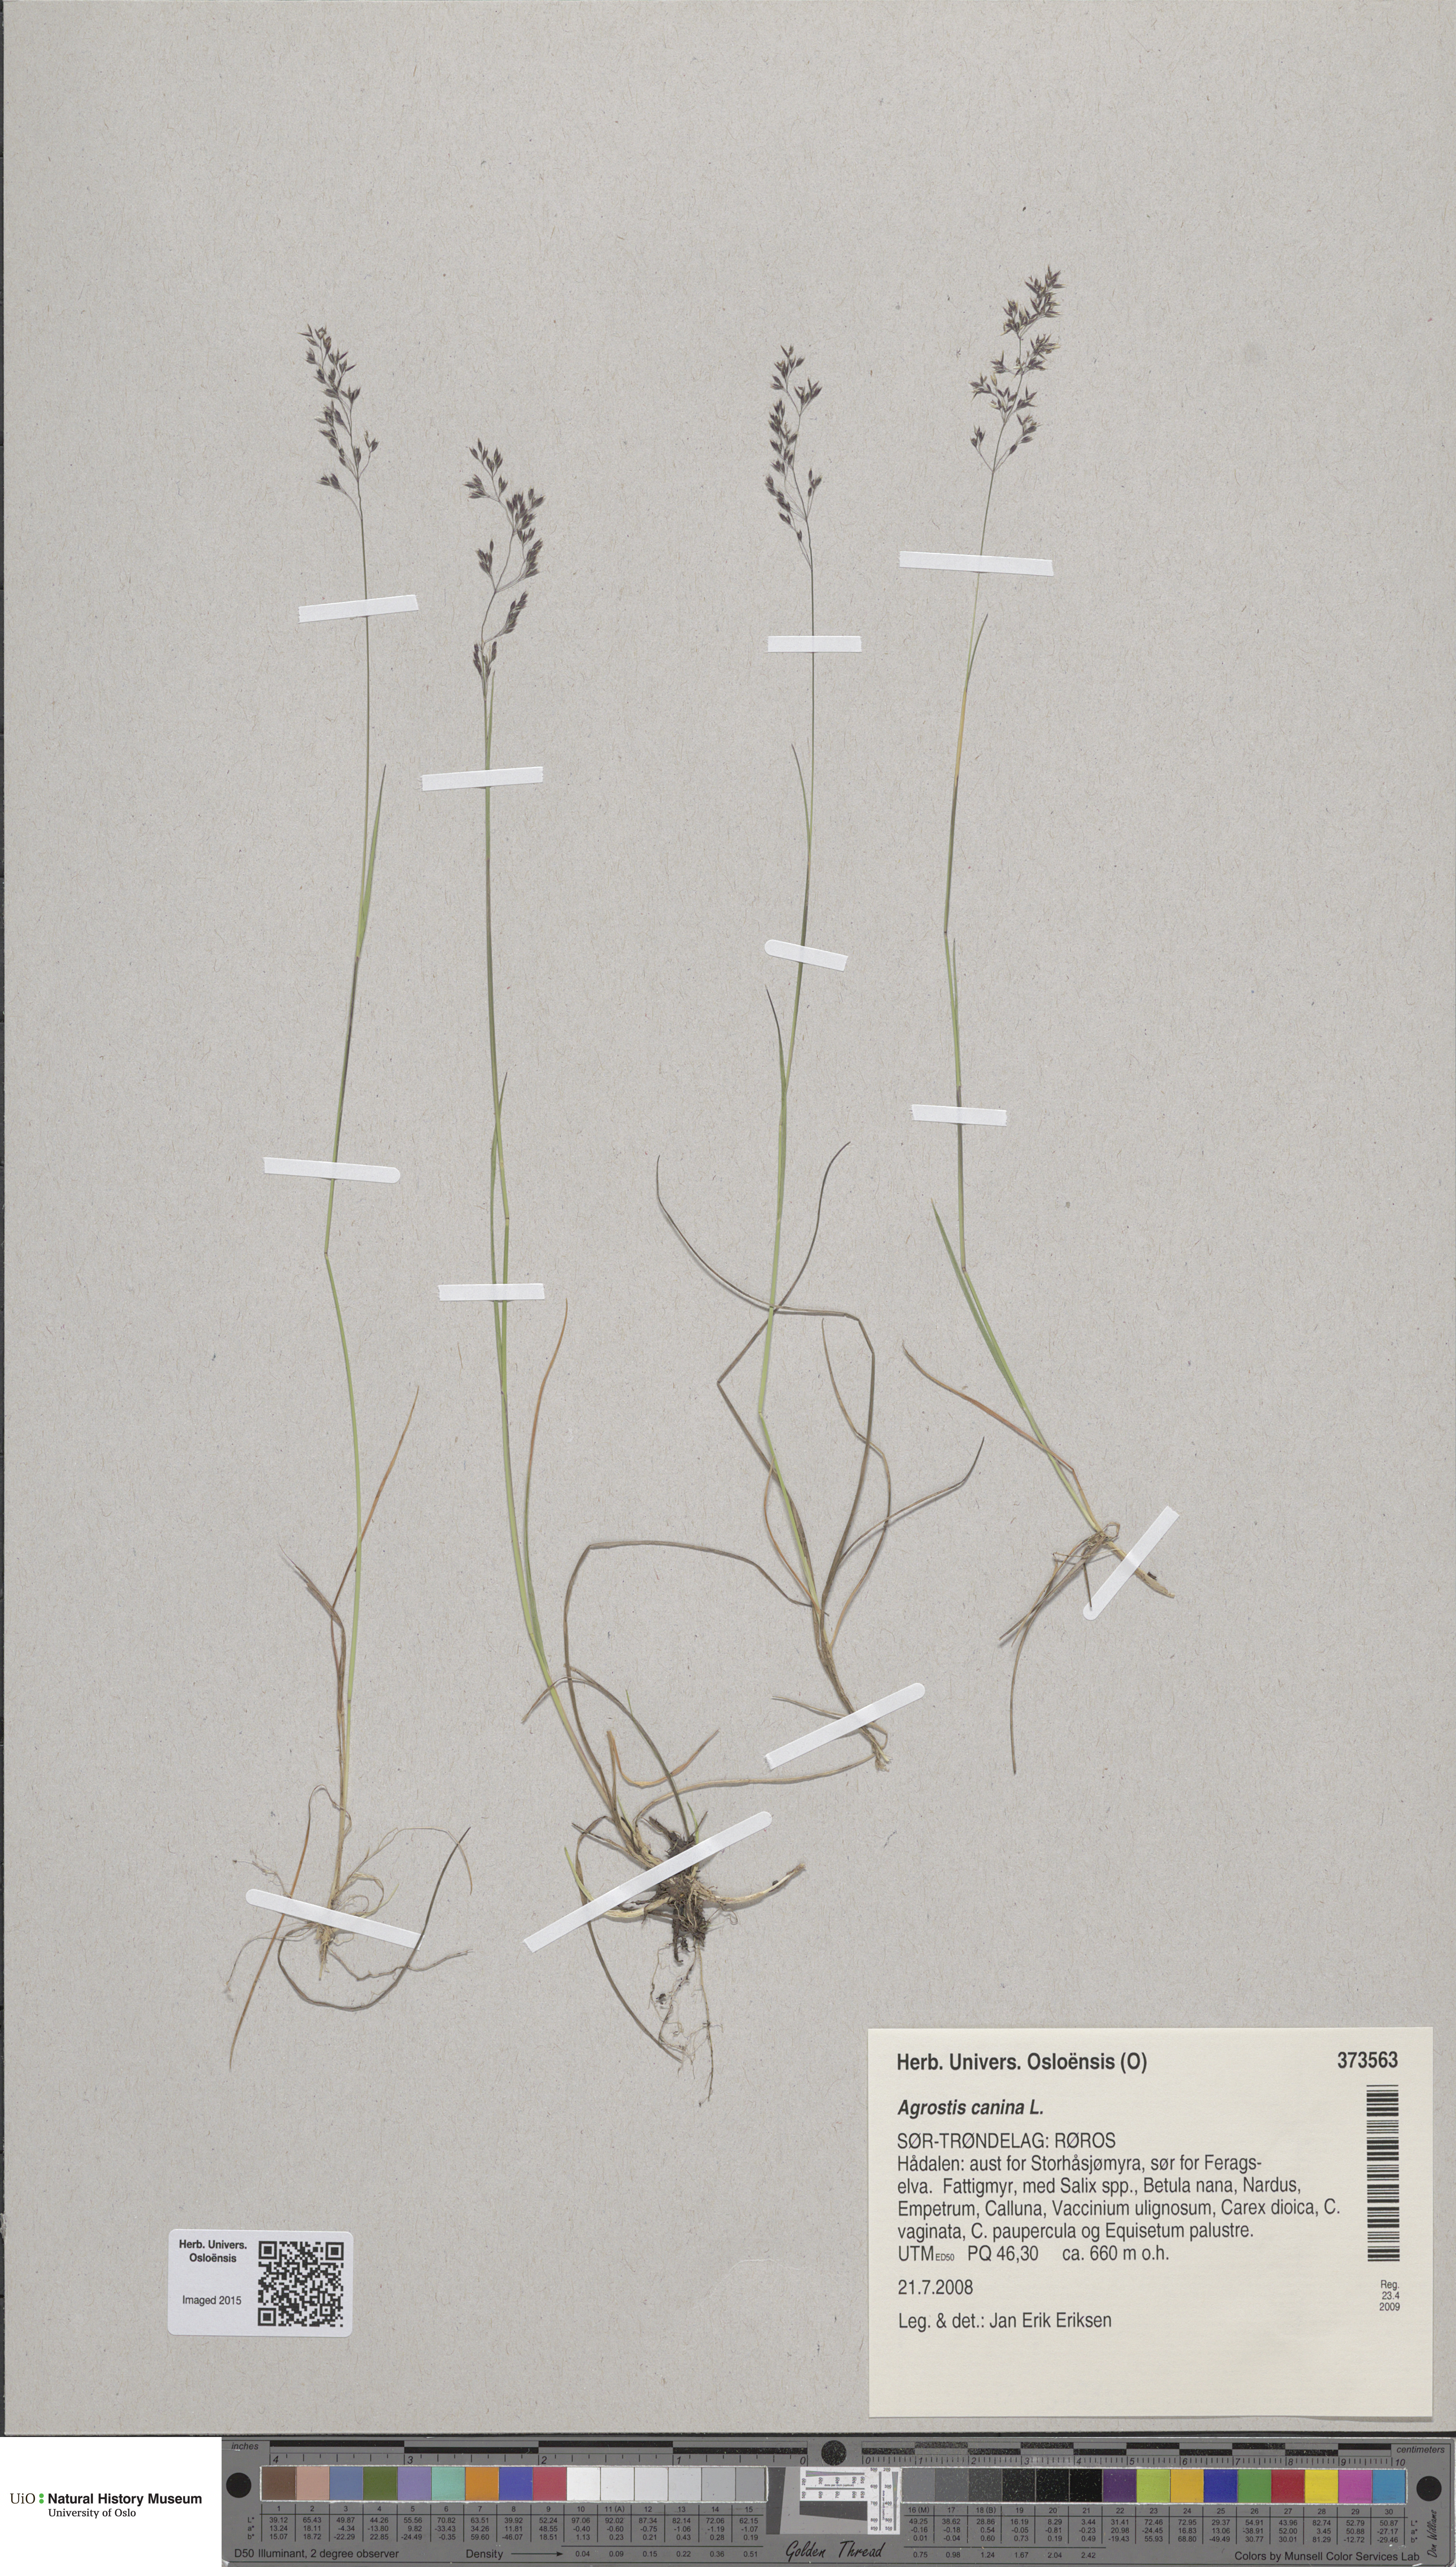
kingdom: Plantae
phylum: Tracheophyta
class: Liliopsida
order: Poales
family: Poaceae
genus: Agrostis
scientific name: Agrostis canina
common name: Velvet bent
